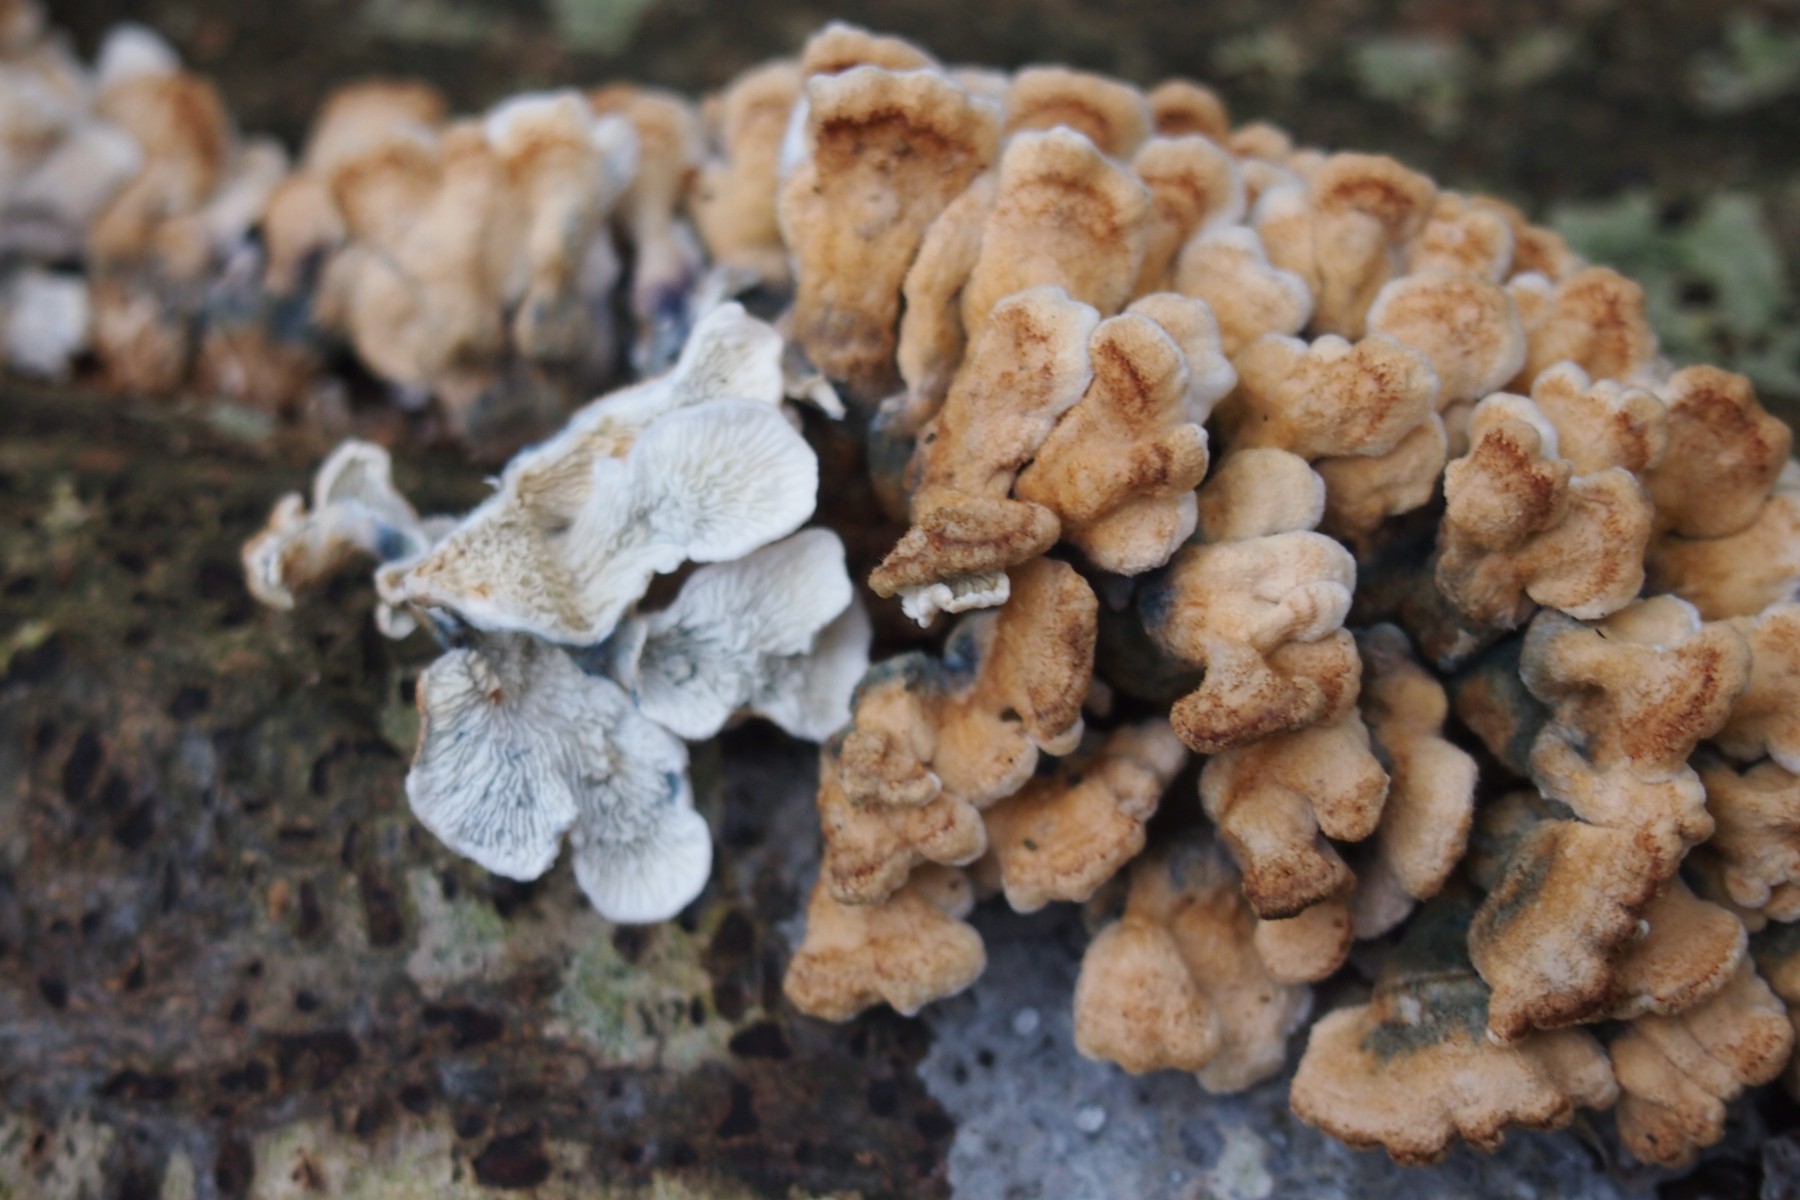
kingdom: Fungi
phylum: Basidiomycota
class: Agaricomycetes
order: Amylocorticiales
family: Amylocorticiaceae
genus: Plicaturopsis
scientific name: Plicaturopsis crispa
